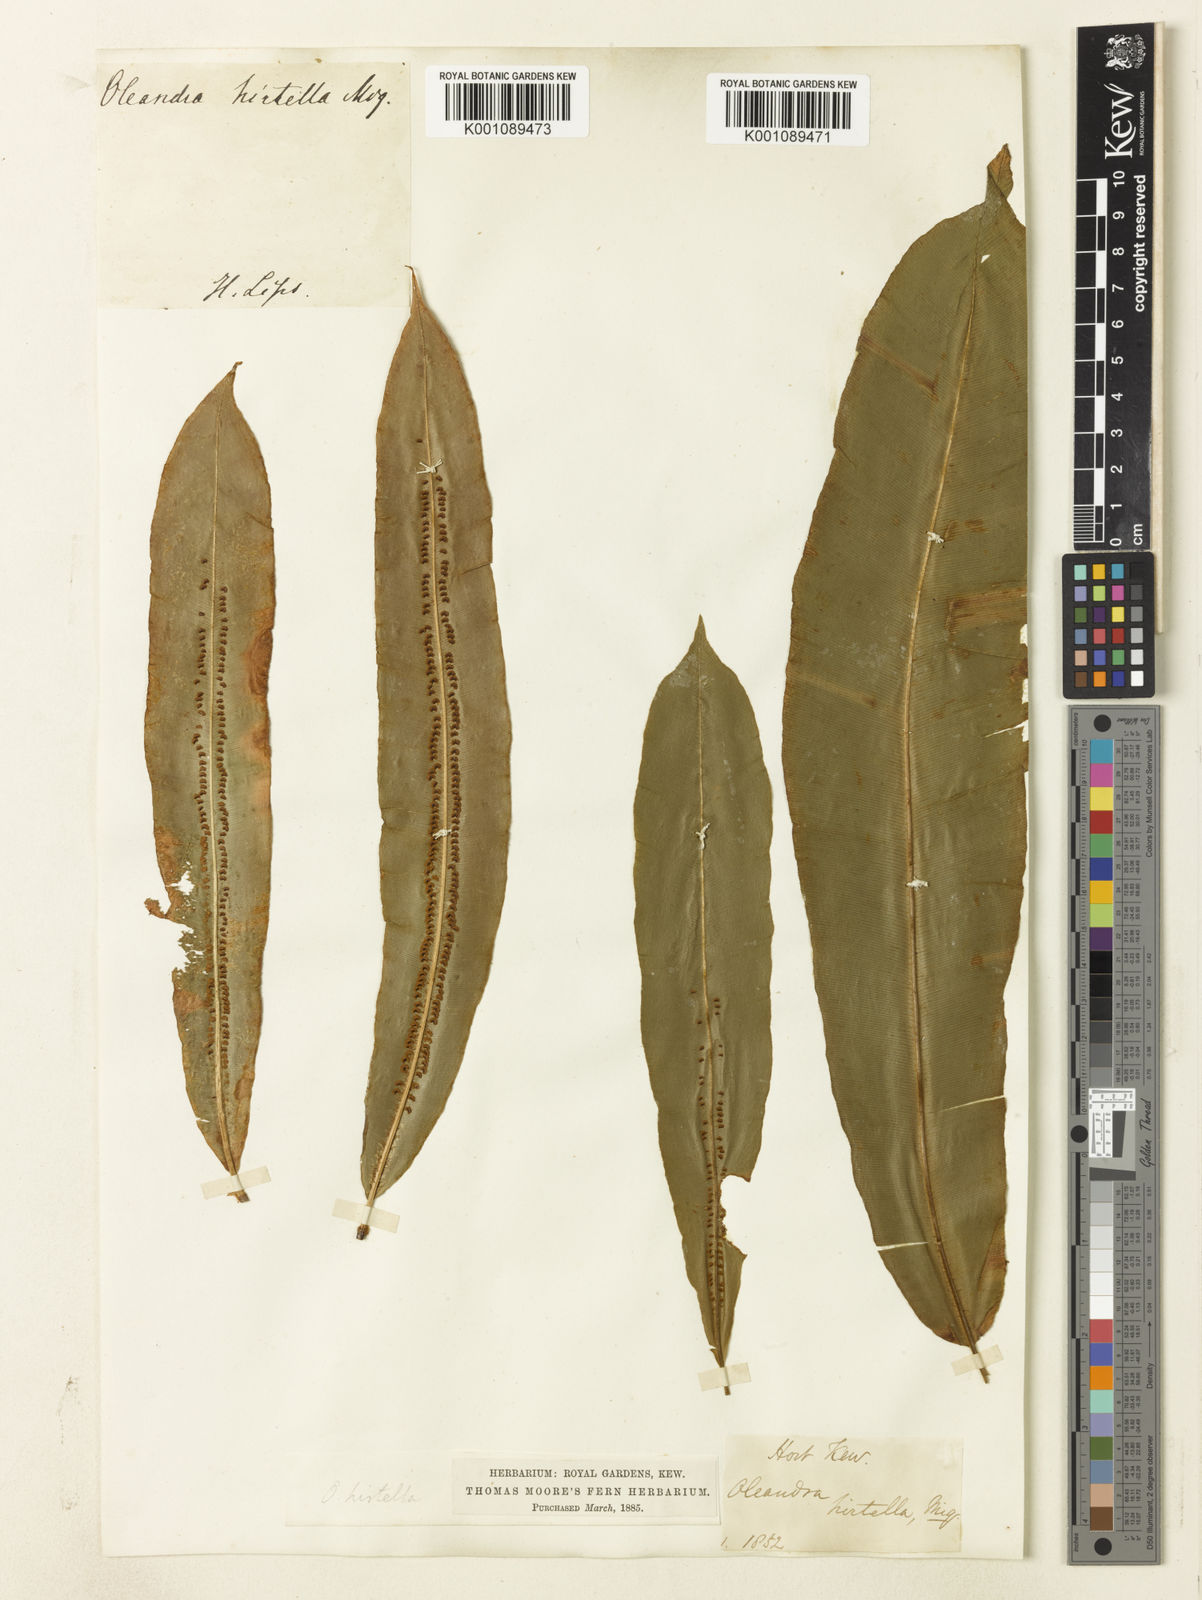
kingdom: Plantae
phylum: Tracheophyta
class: Polypodiopsida
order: Polypodiales
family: Oleandraceae
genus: Oleandra
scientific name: Oleandra neriiformis
